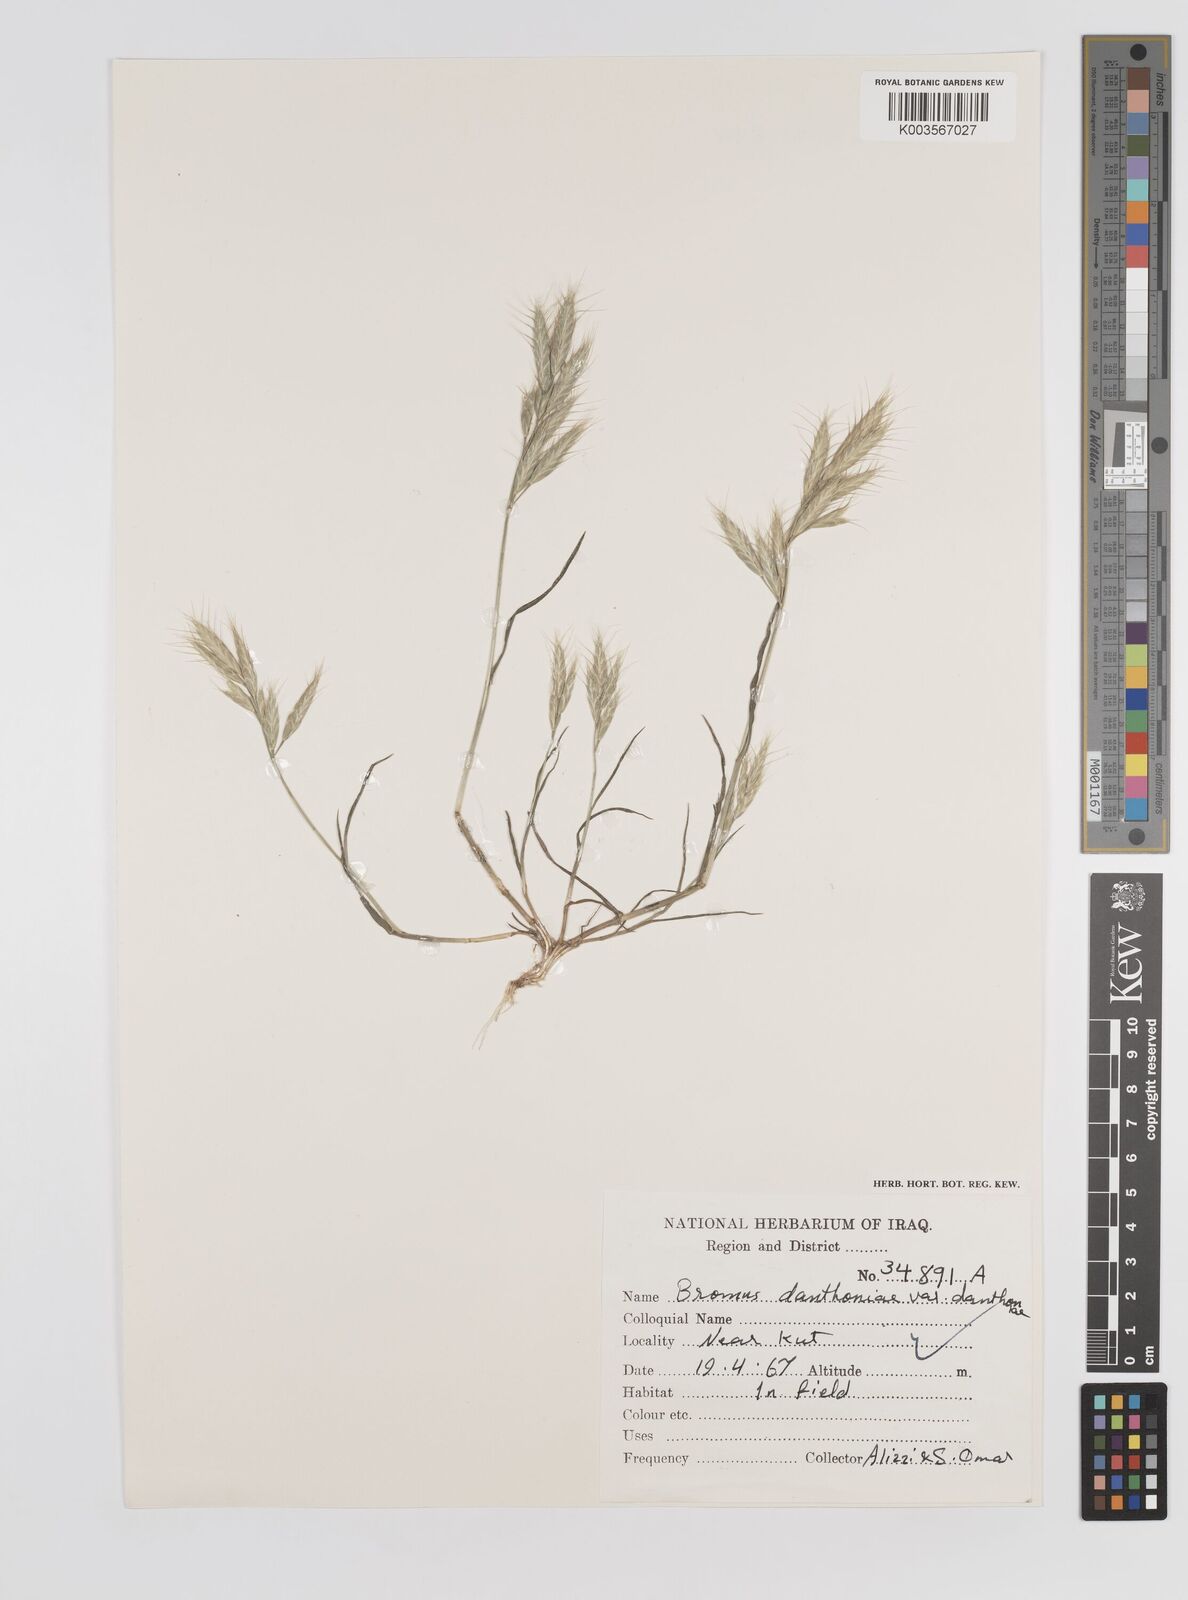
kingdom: Plantae
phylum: Tracheophyta
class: Liliopsida
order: Poales
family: Poaceae
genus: Bromus
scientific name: Bromus danthoniae
